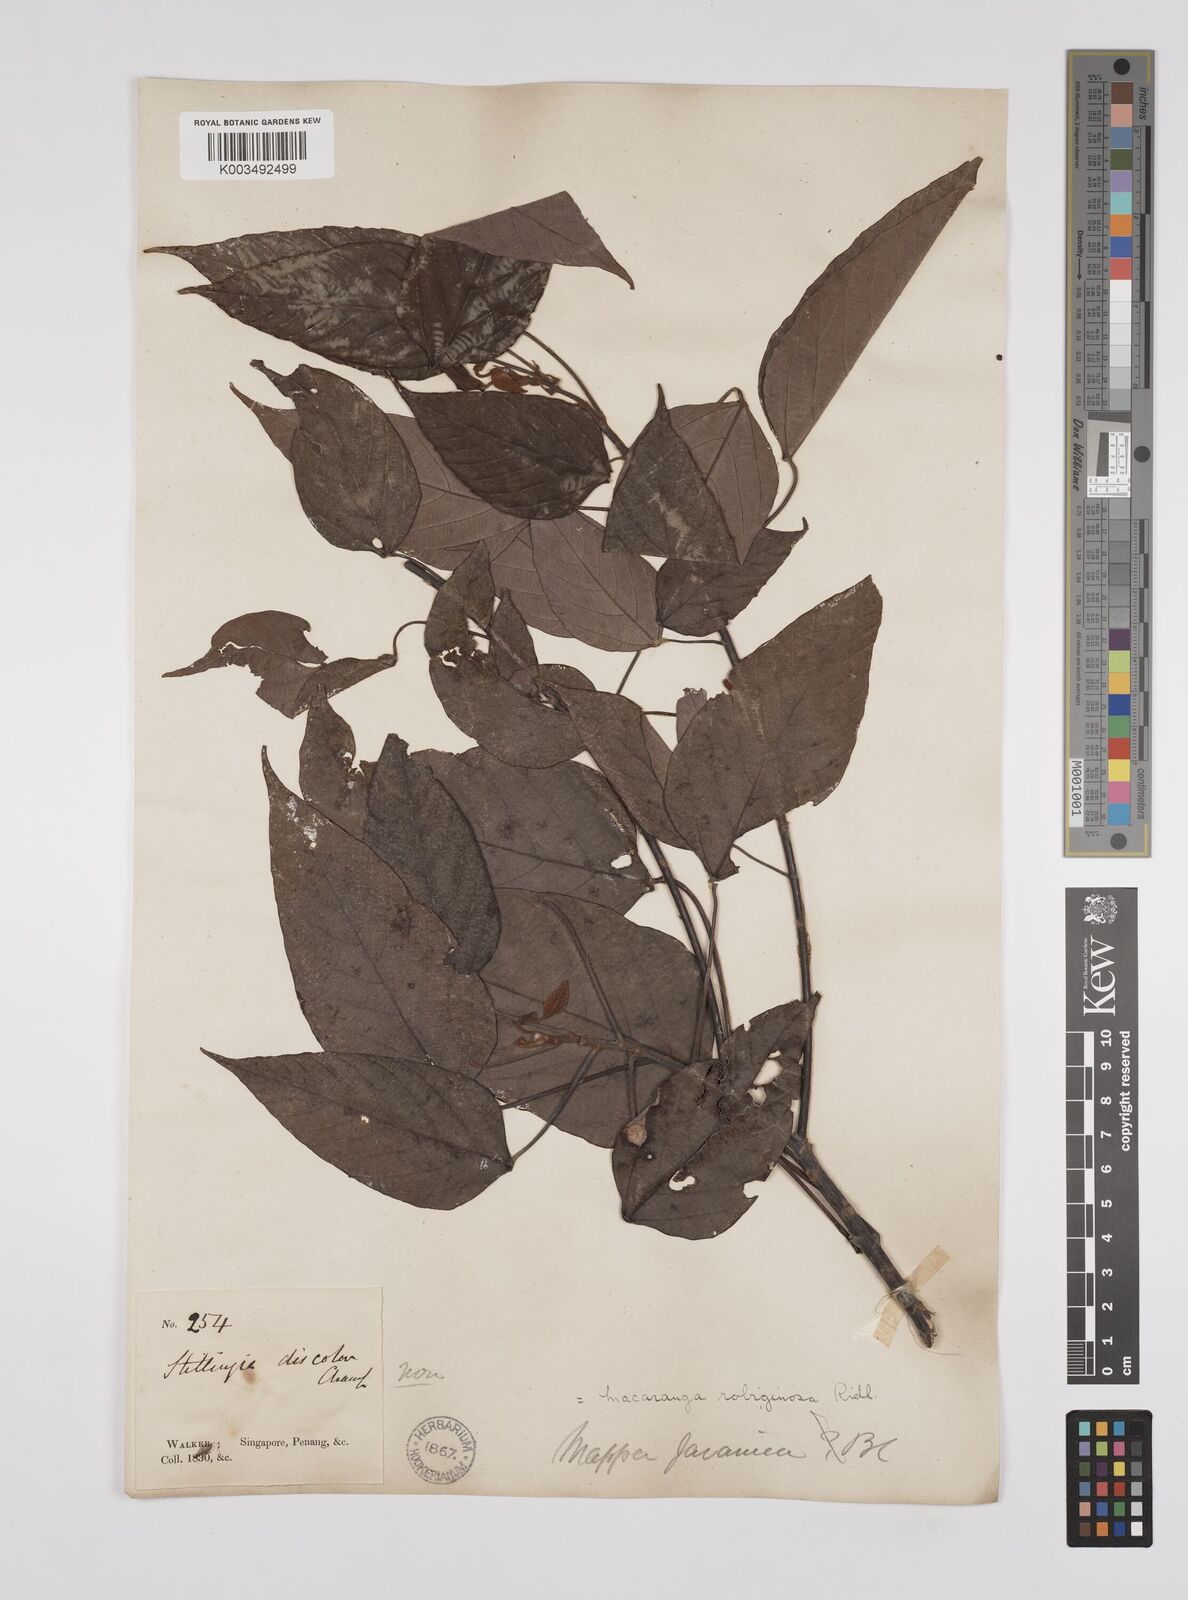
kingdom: Plantae
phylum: Tracheophyta
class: Magnoliopsida
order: Malpighiales
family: Euphorbiaceae
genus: Macaranga
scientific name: Macaranga heynei
